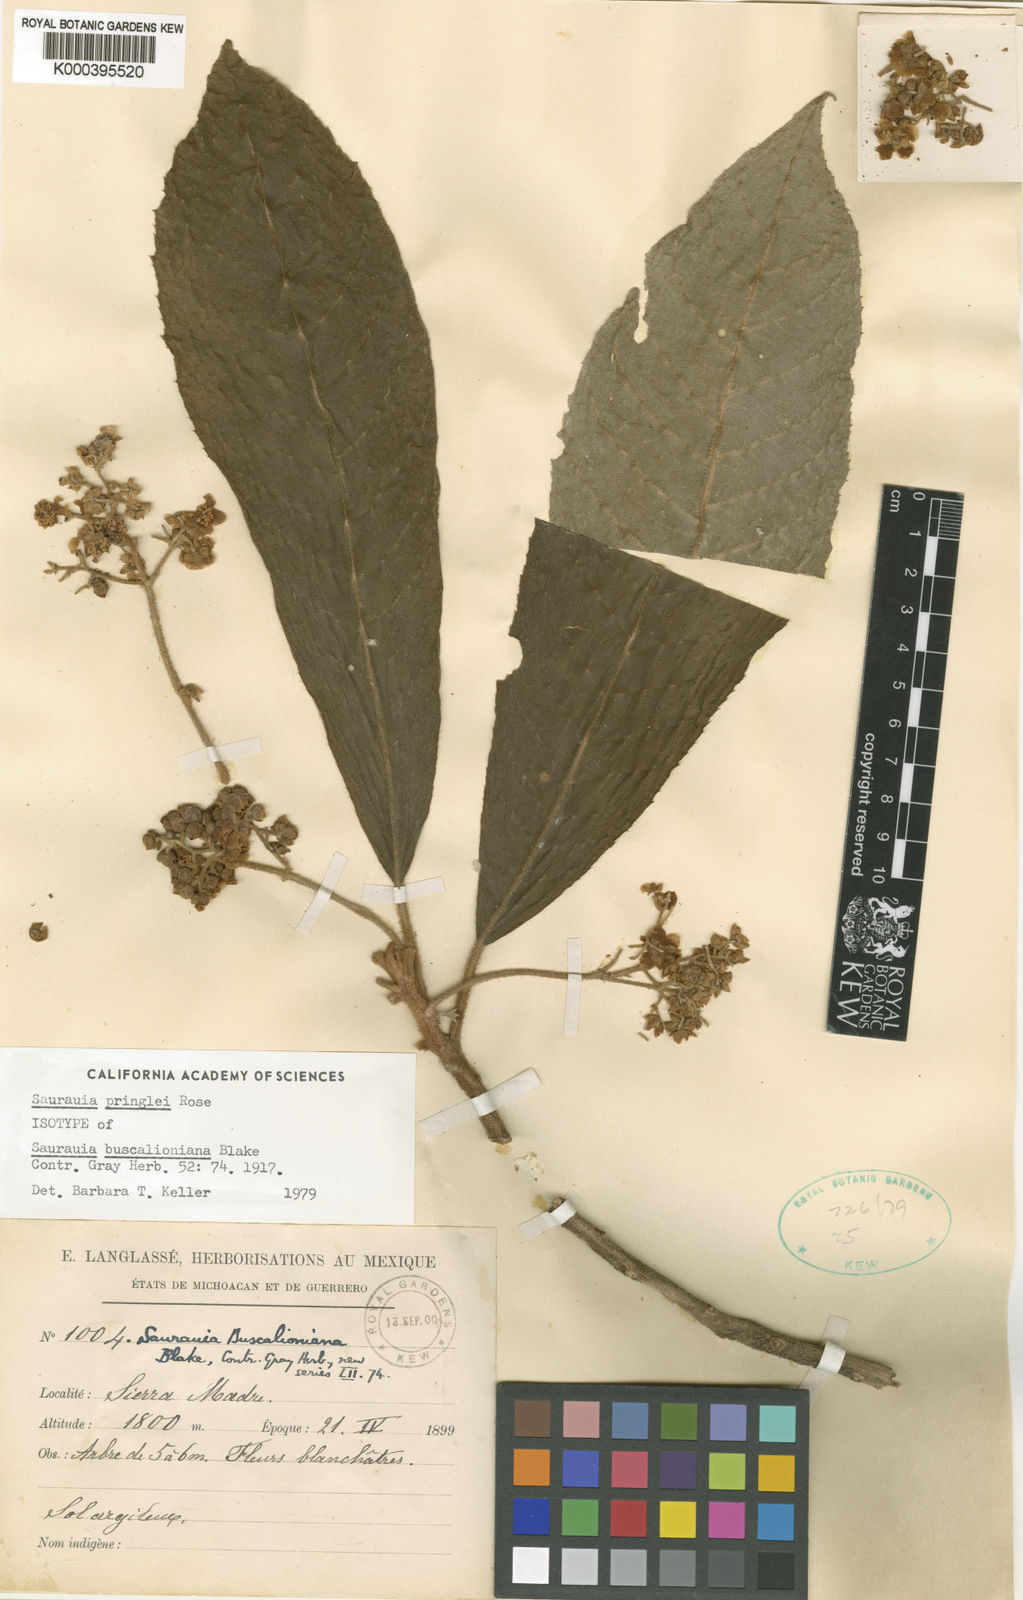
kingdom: Plantae
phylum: Tracheophyta
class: Magnoliopsida
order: Ericales
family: Actinidiaceae
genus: Saurauia
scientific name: Saurauia pringlei
